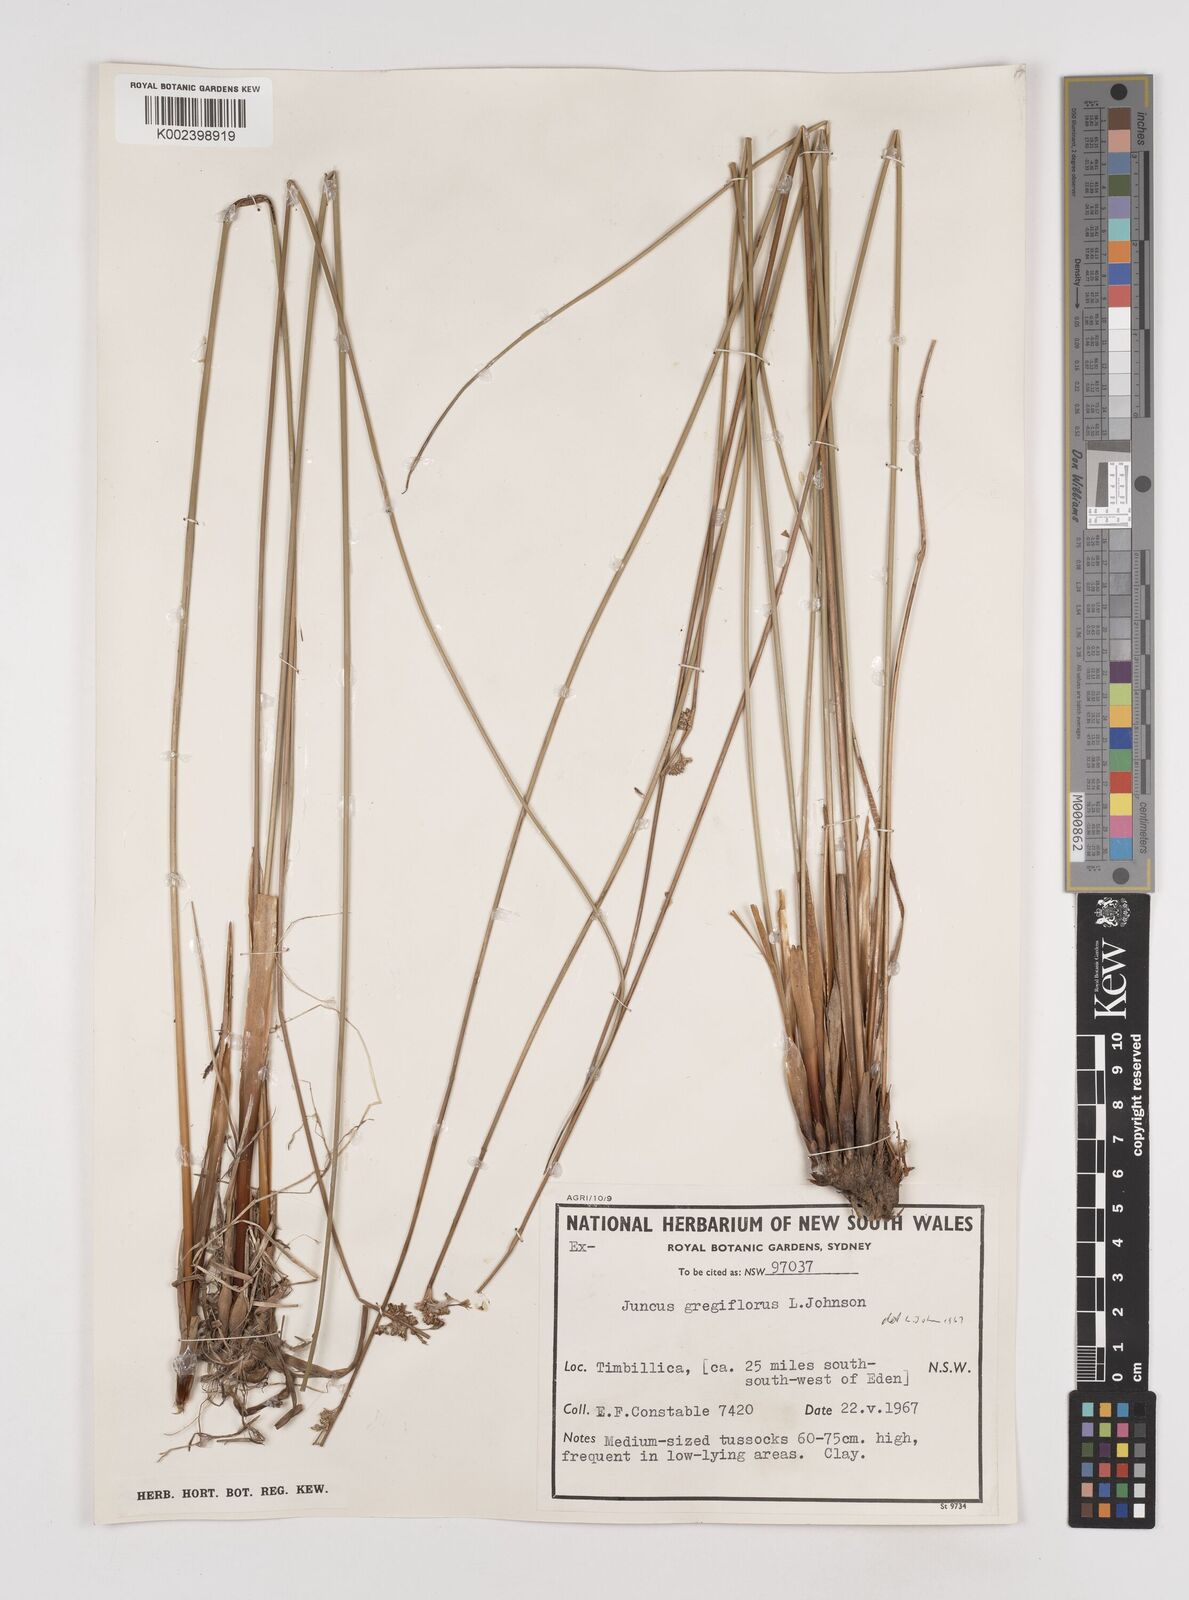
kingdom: Plantae
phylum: Tracheophyta
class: Liliopsida
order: Poales
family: Juncaceae
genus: Juncus
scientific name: Juncus gregiflorus
